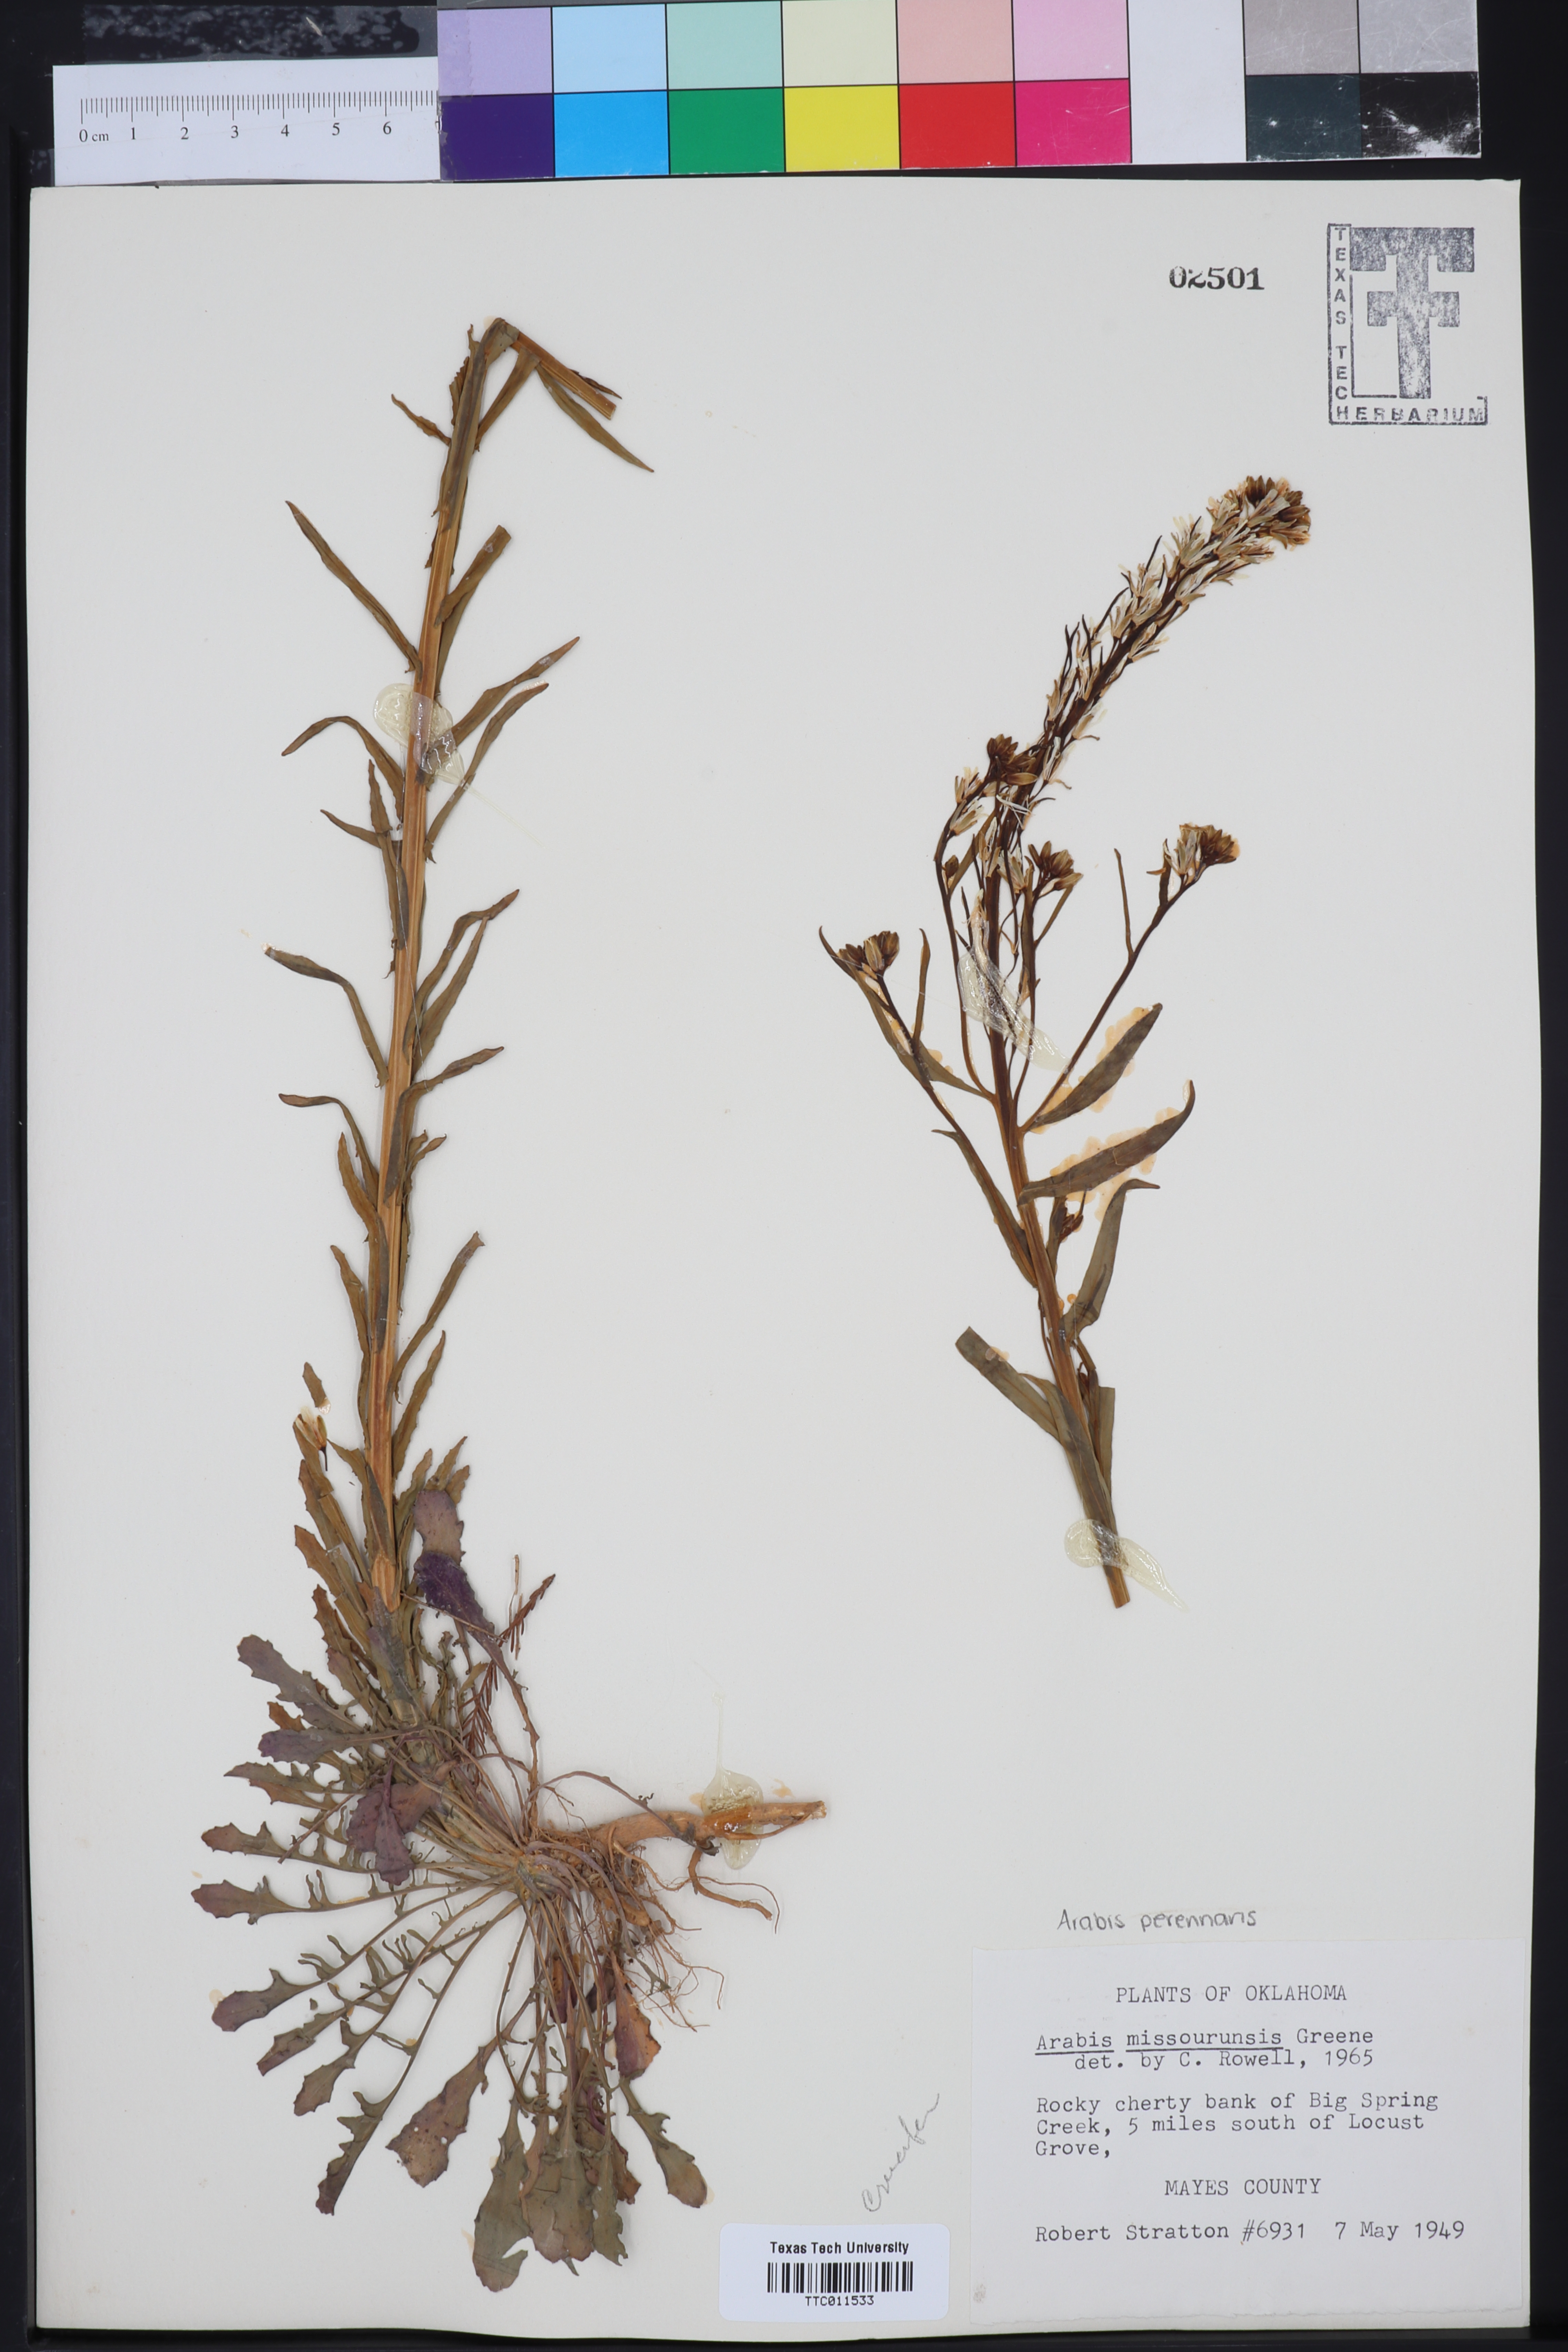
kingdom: Plantae
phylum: Tracheophyta
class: Magnoliopsida
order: Brassicales
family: Brassicaceae
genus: Borodinia
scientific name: Borodinia missouriensis
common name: Green rockcress
